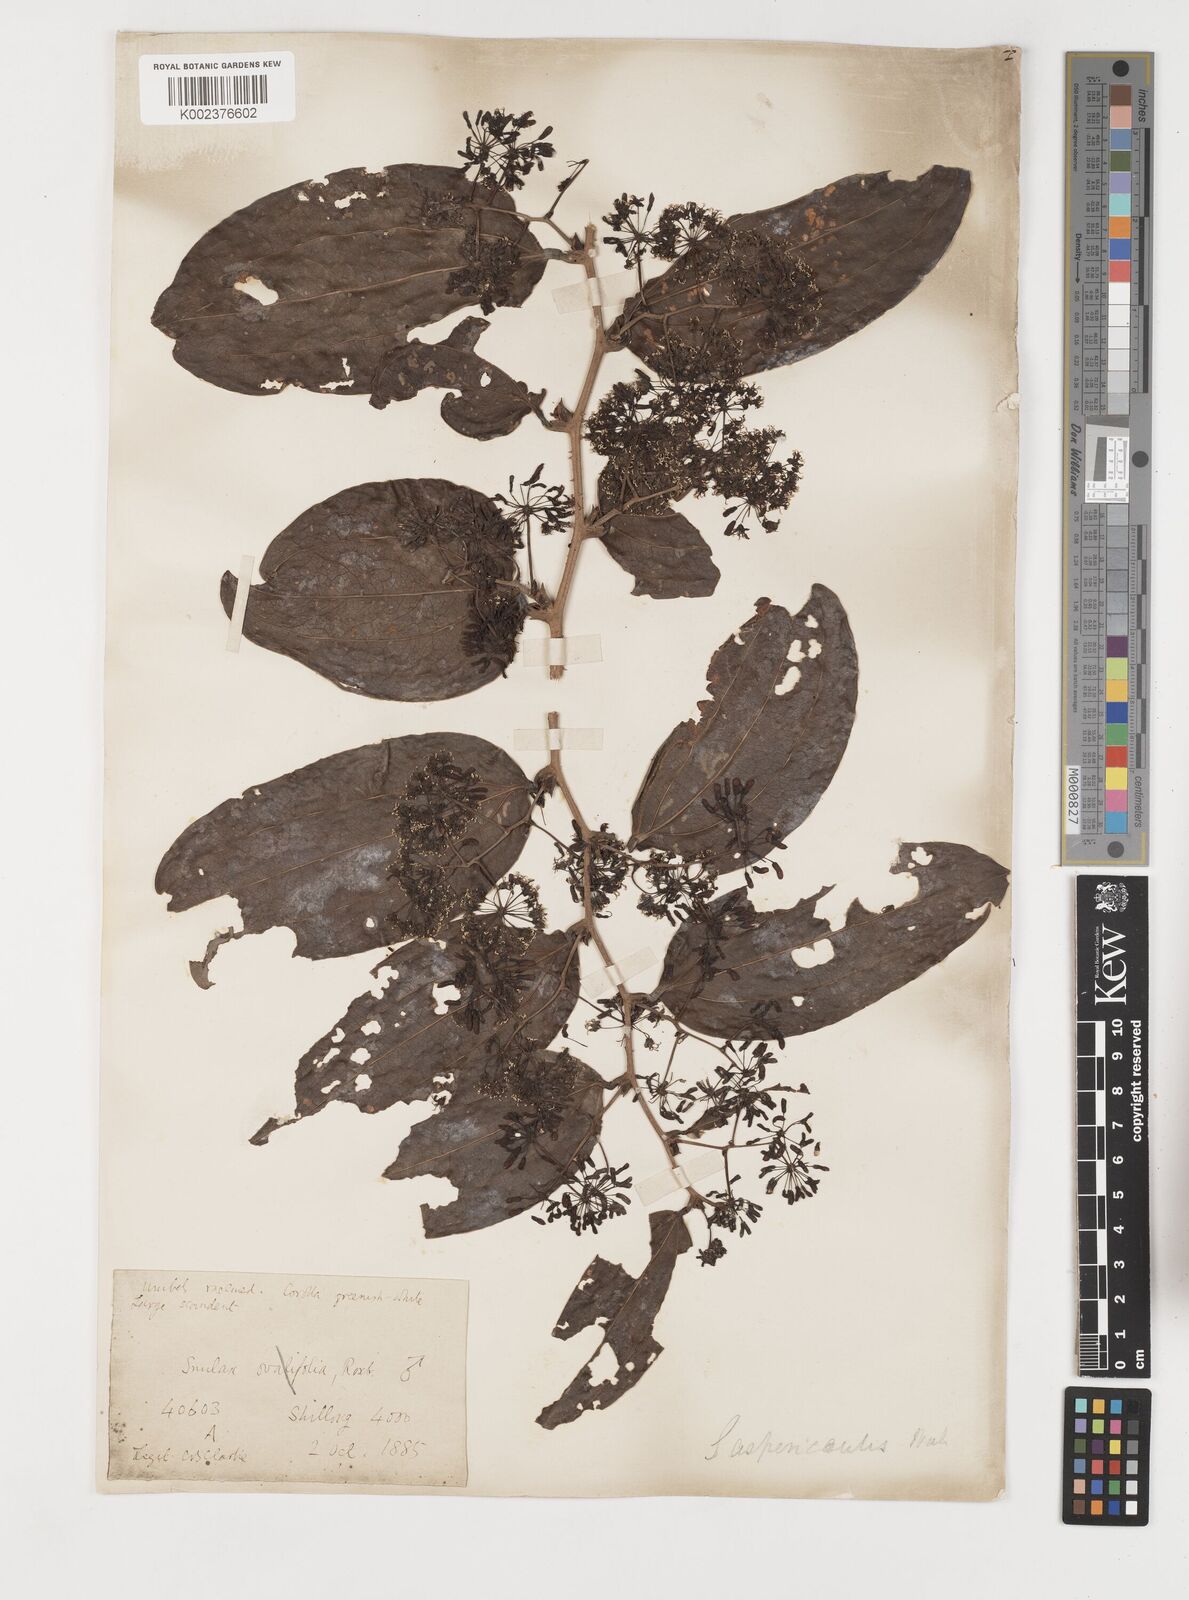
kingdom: Plantae
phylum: Tracheophyta
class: Liliopsida
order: Liliales
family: Smilacaceae
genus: Smilax
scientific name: Smilax aspericaulis
